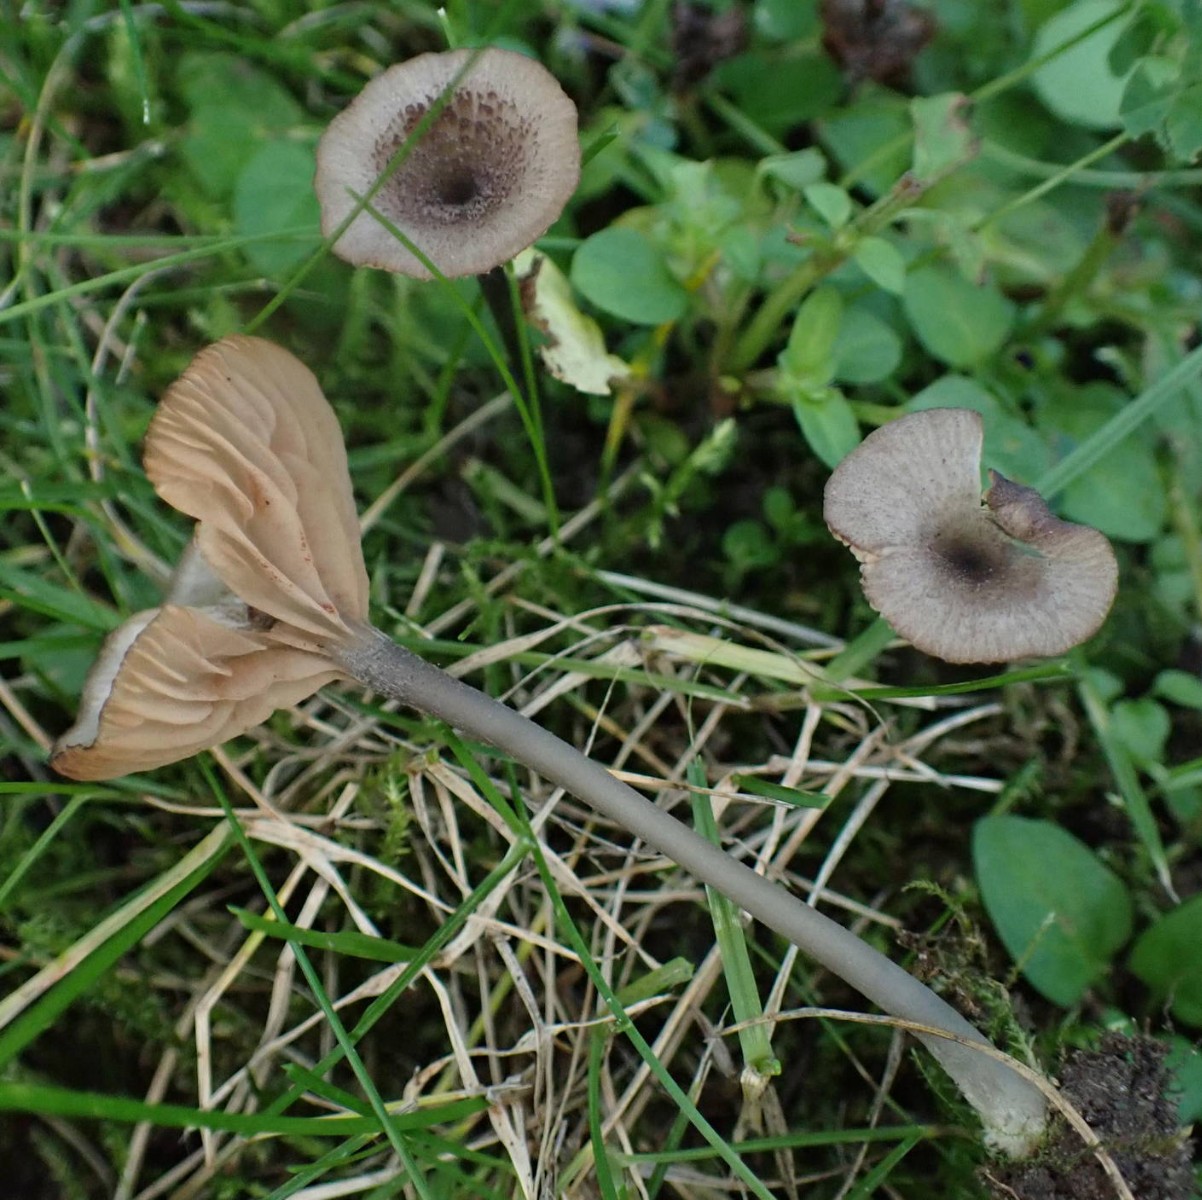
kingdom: Fungi
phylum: Basidiomycota
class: Agaricomycetes
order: Agaricales
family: Entolomataceae
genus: Entoloma
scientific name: Entoloma incarnatofuscescens
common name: tragt-rødblad
